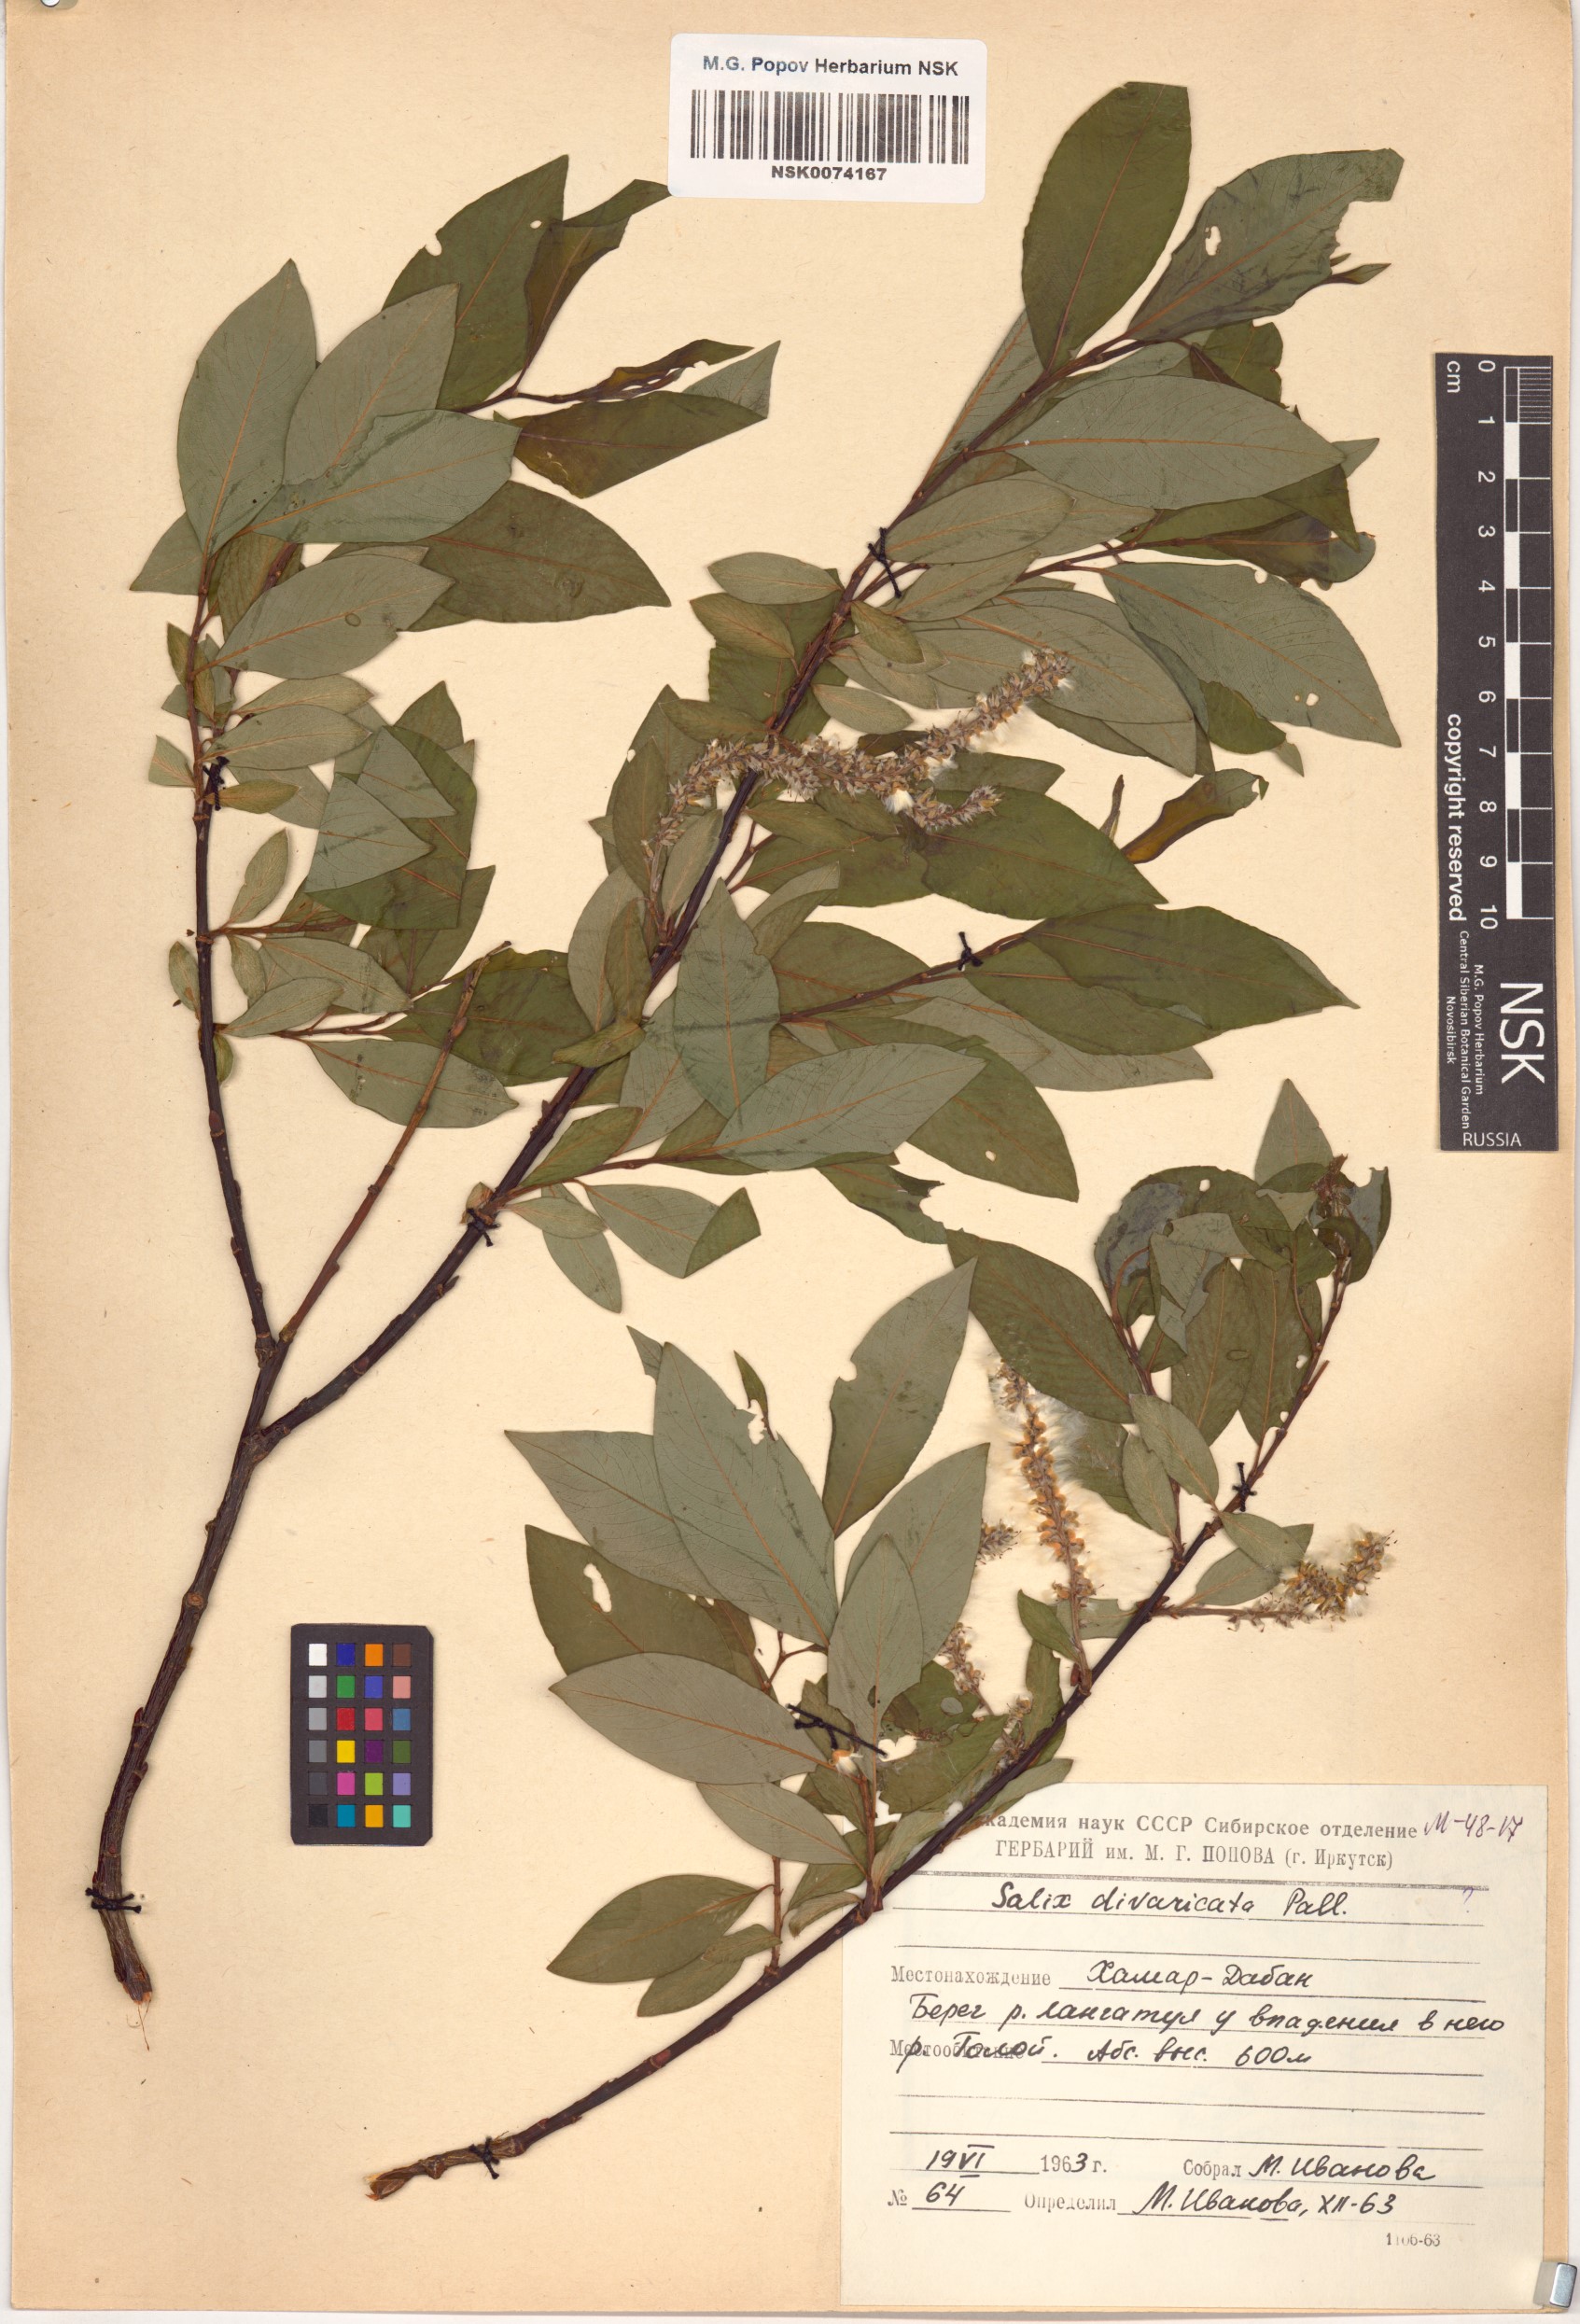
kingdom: Plantae
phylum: Tracheophyta
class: Magnoliopsida
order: Malpighiales
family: Salicaceae
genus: Salix
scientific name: Salix divaricata
